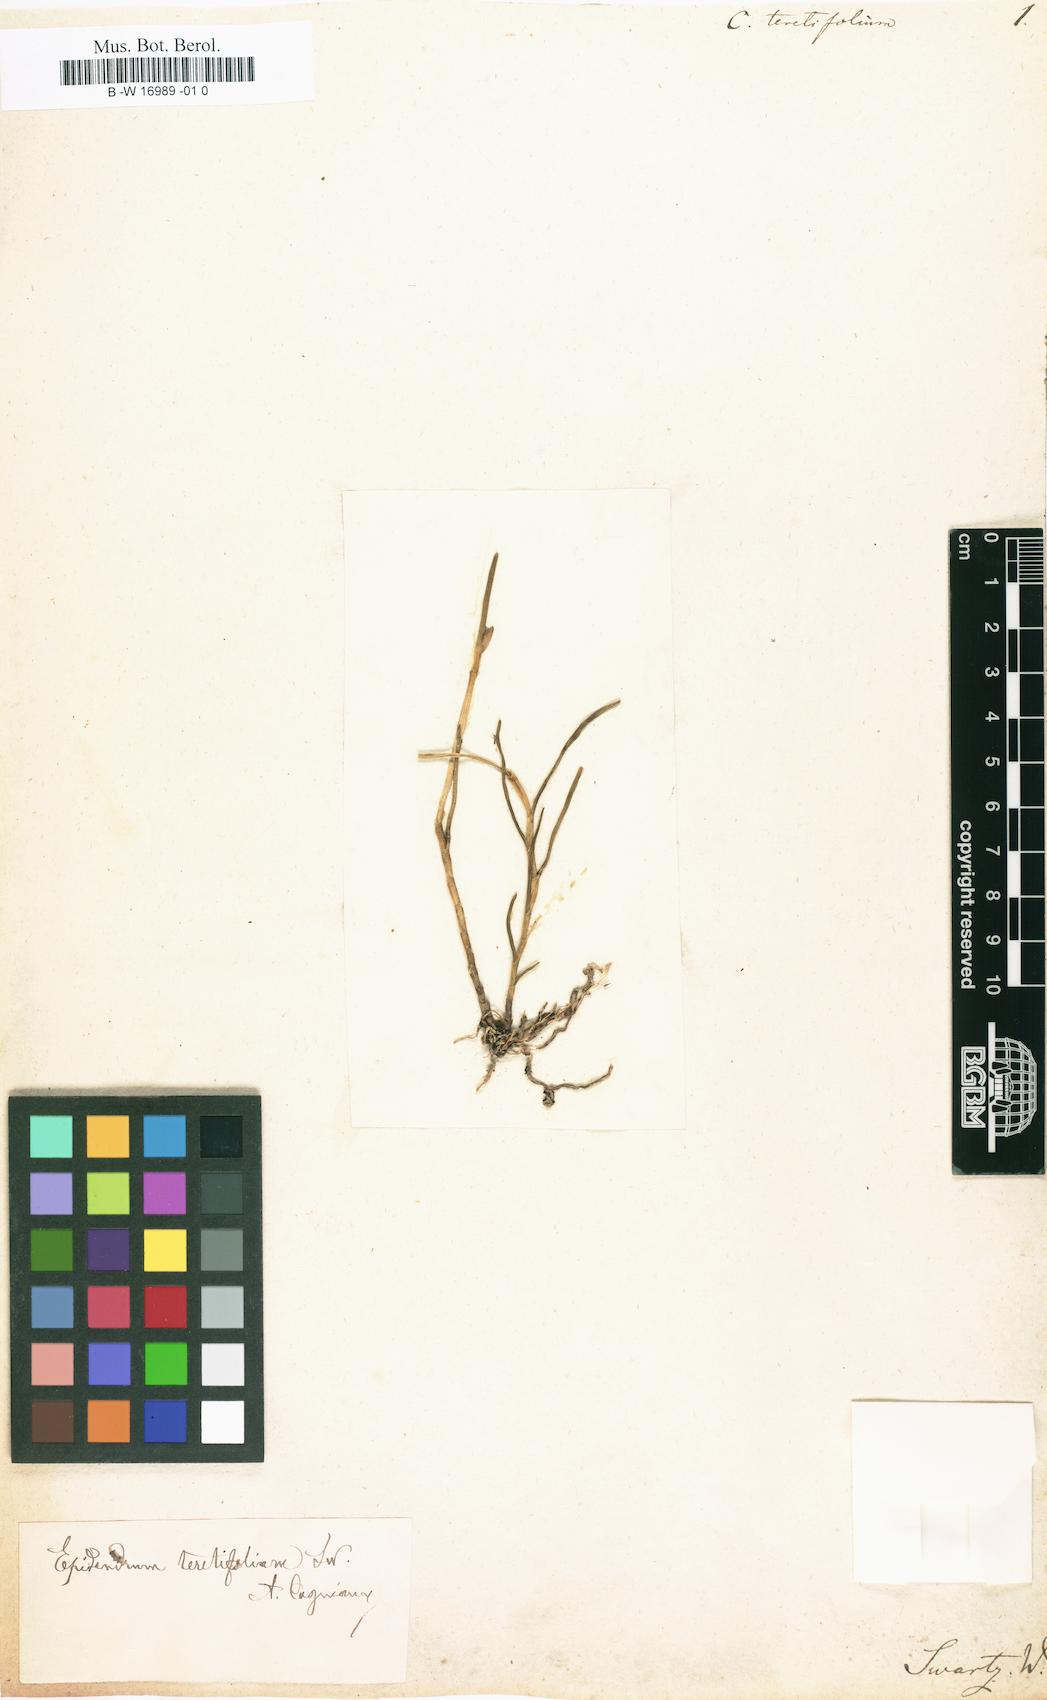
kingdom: Plantae
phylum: Tracheophyta
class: Liliopsida
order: Asparagales
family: Orchidaceae
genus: Jacquiniella
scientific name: Jacquiniella teretifolia
